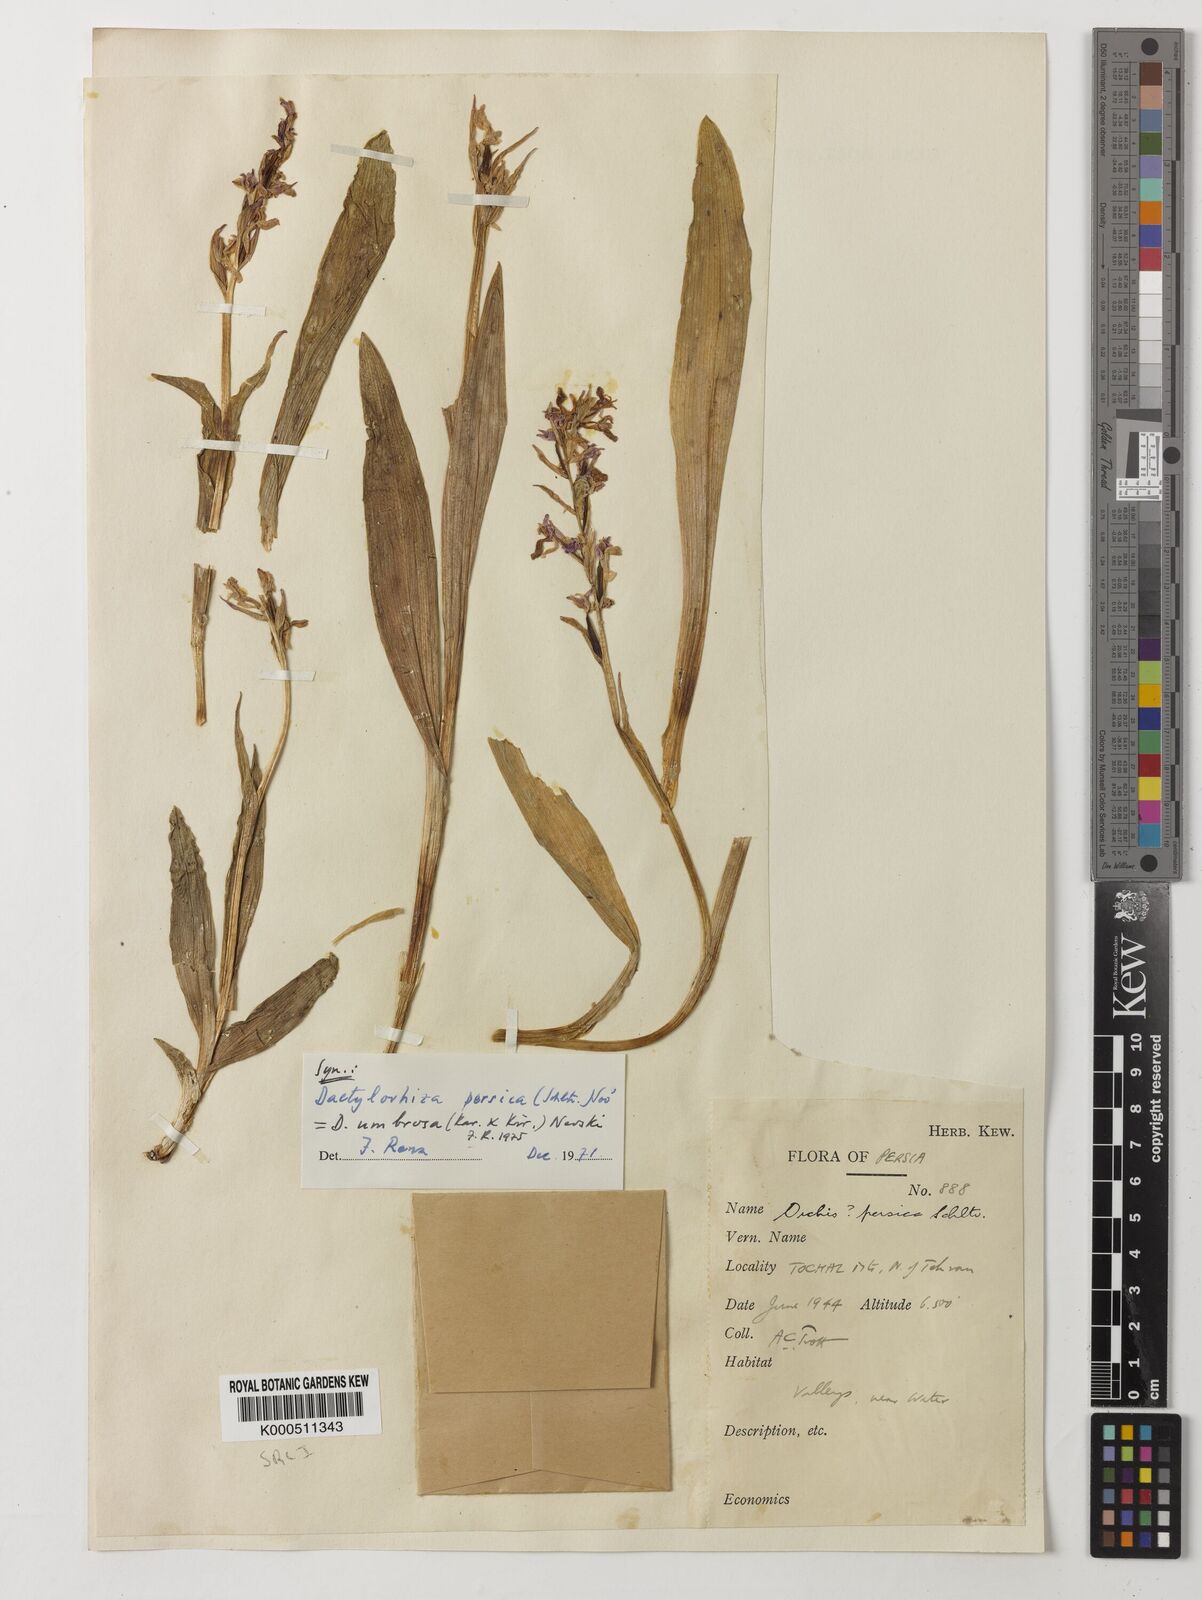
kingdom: Plantae
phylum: Tracheophyta
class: Liliopsida
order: Asparagales
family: Orchidaceae
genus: Dactylorhiza
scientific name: Dactylorhiza
